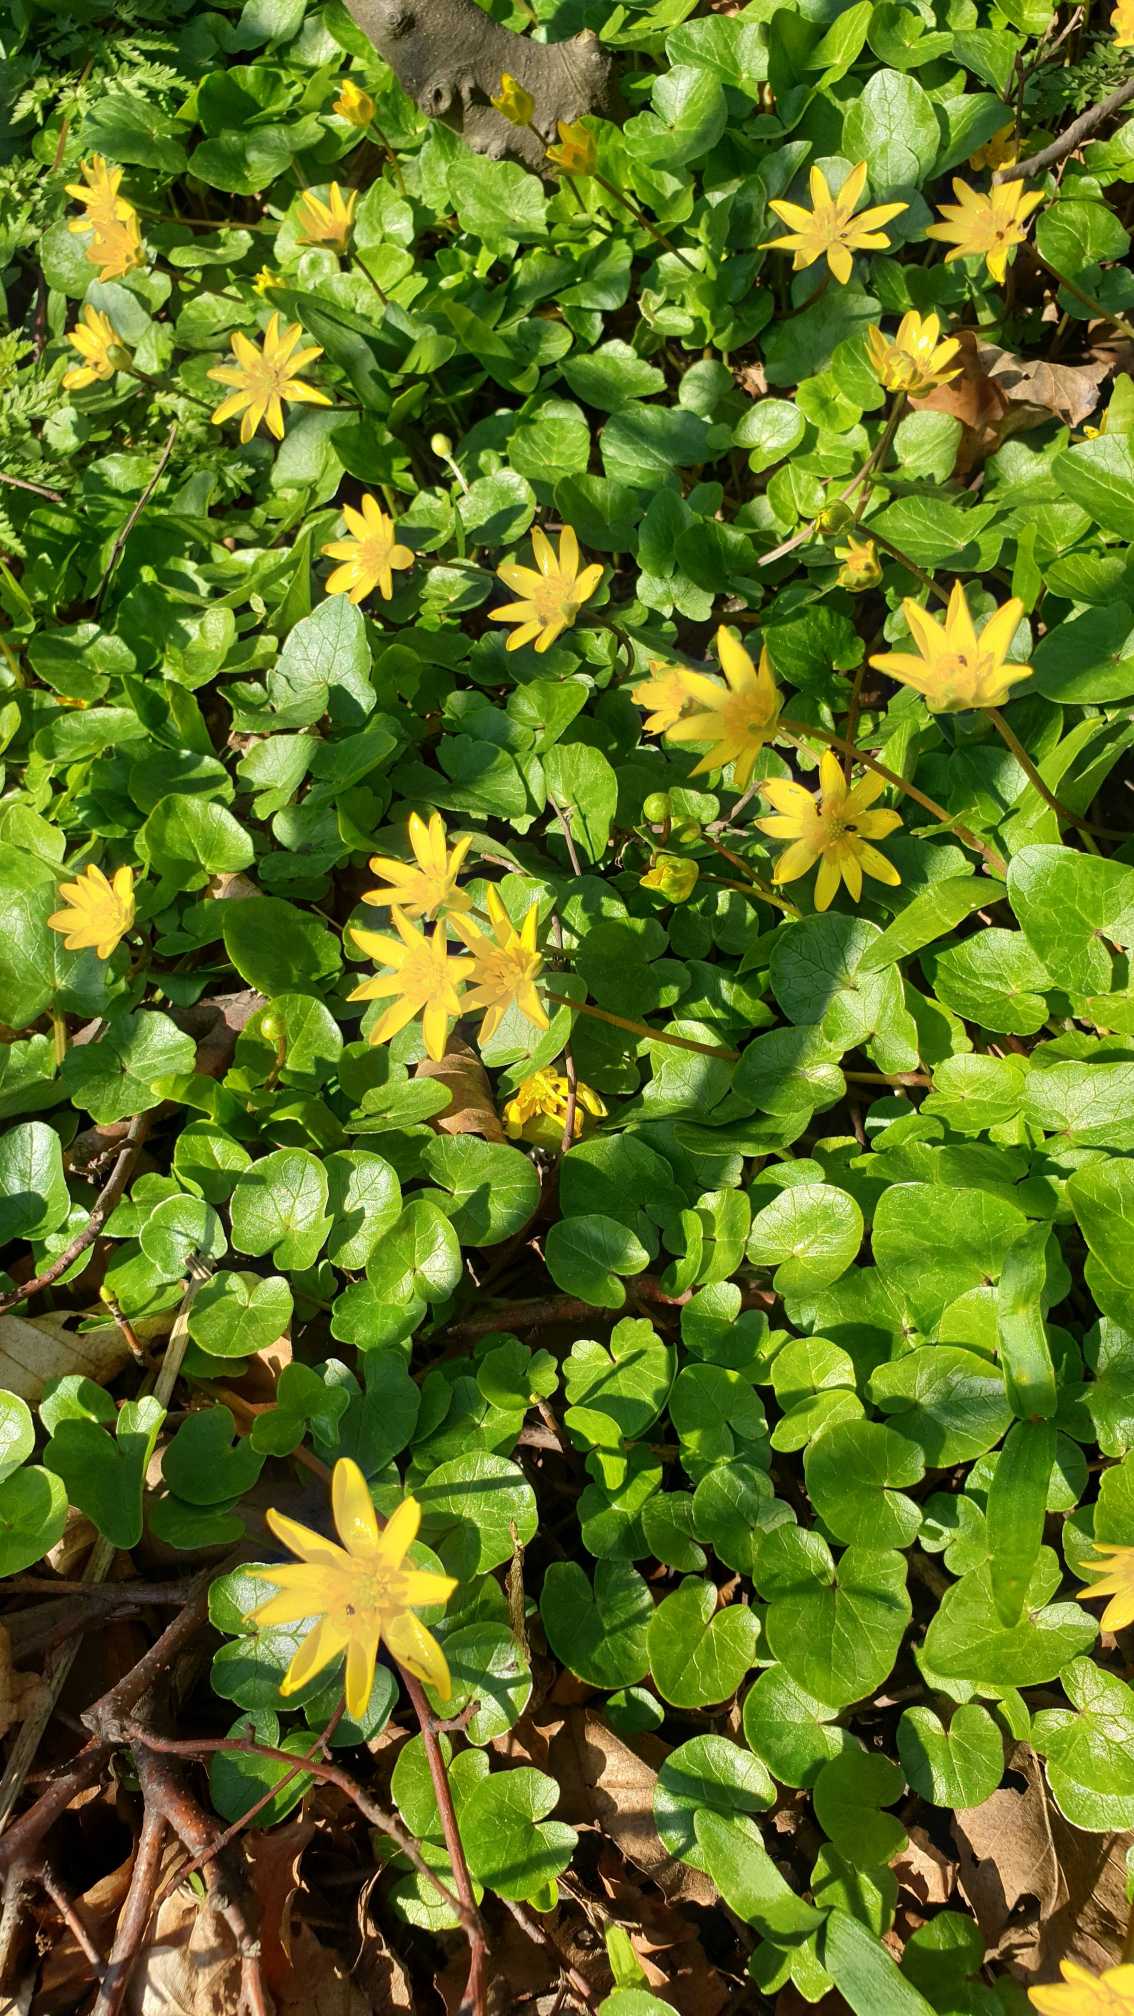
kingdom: Plantae
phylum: Tracheophyta
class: Magnoliopsida
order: Ranunculales
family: Ranunculaceae
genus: Ficaria
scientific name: Ficaria verna
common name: Vorterod
